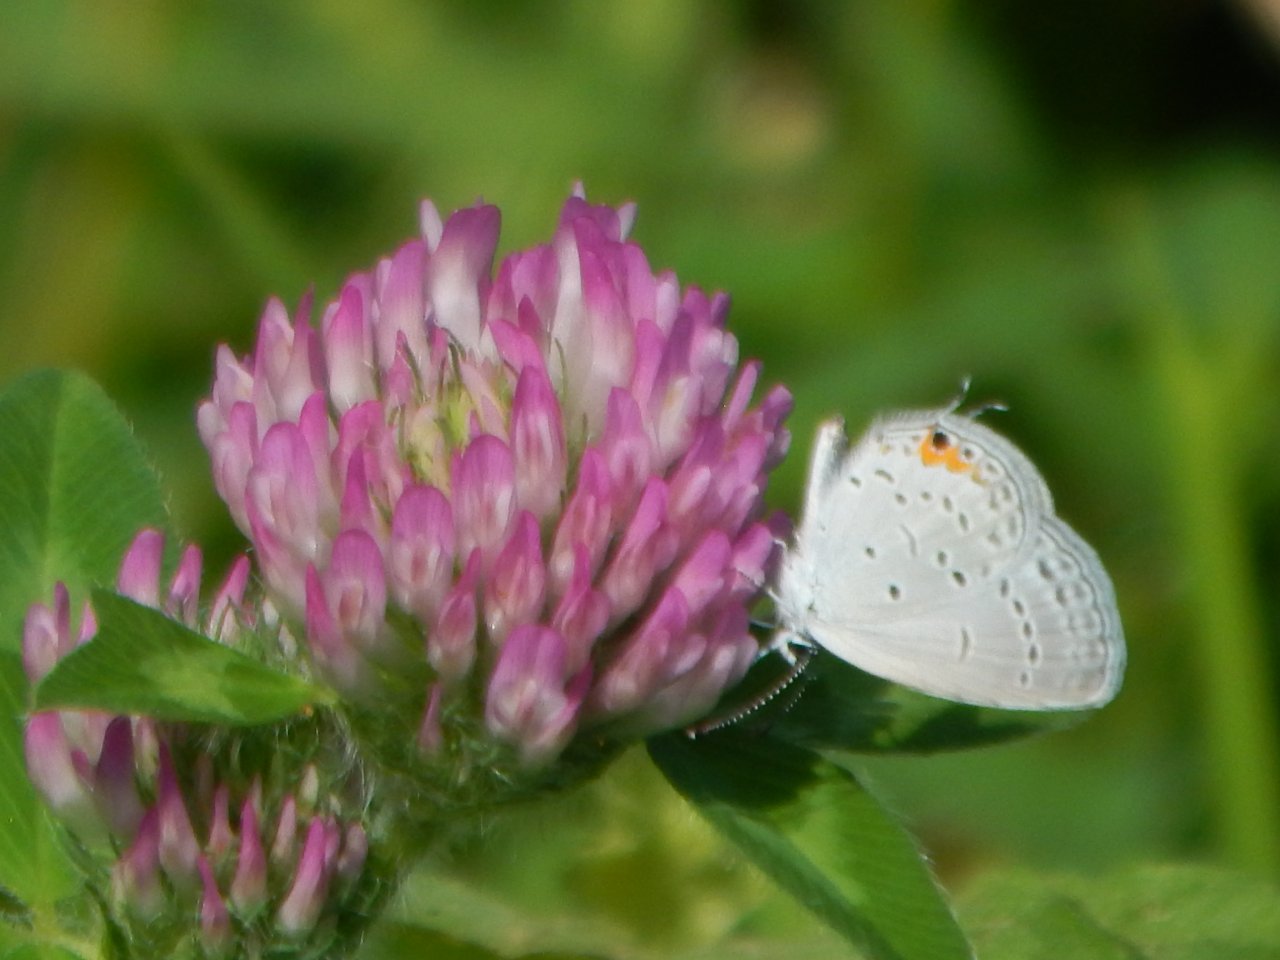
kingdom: Animalia
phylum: Arthropoda
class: Insecta
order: Lepidoptera
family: Lycaenidae
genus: Elkalyce
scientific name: Elkalyce comyntas
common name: Eastern Tailed-Blue
